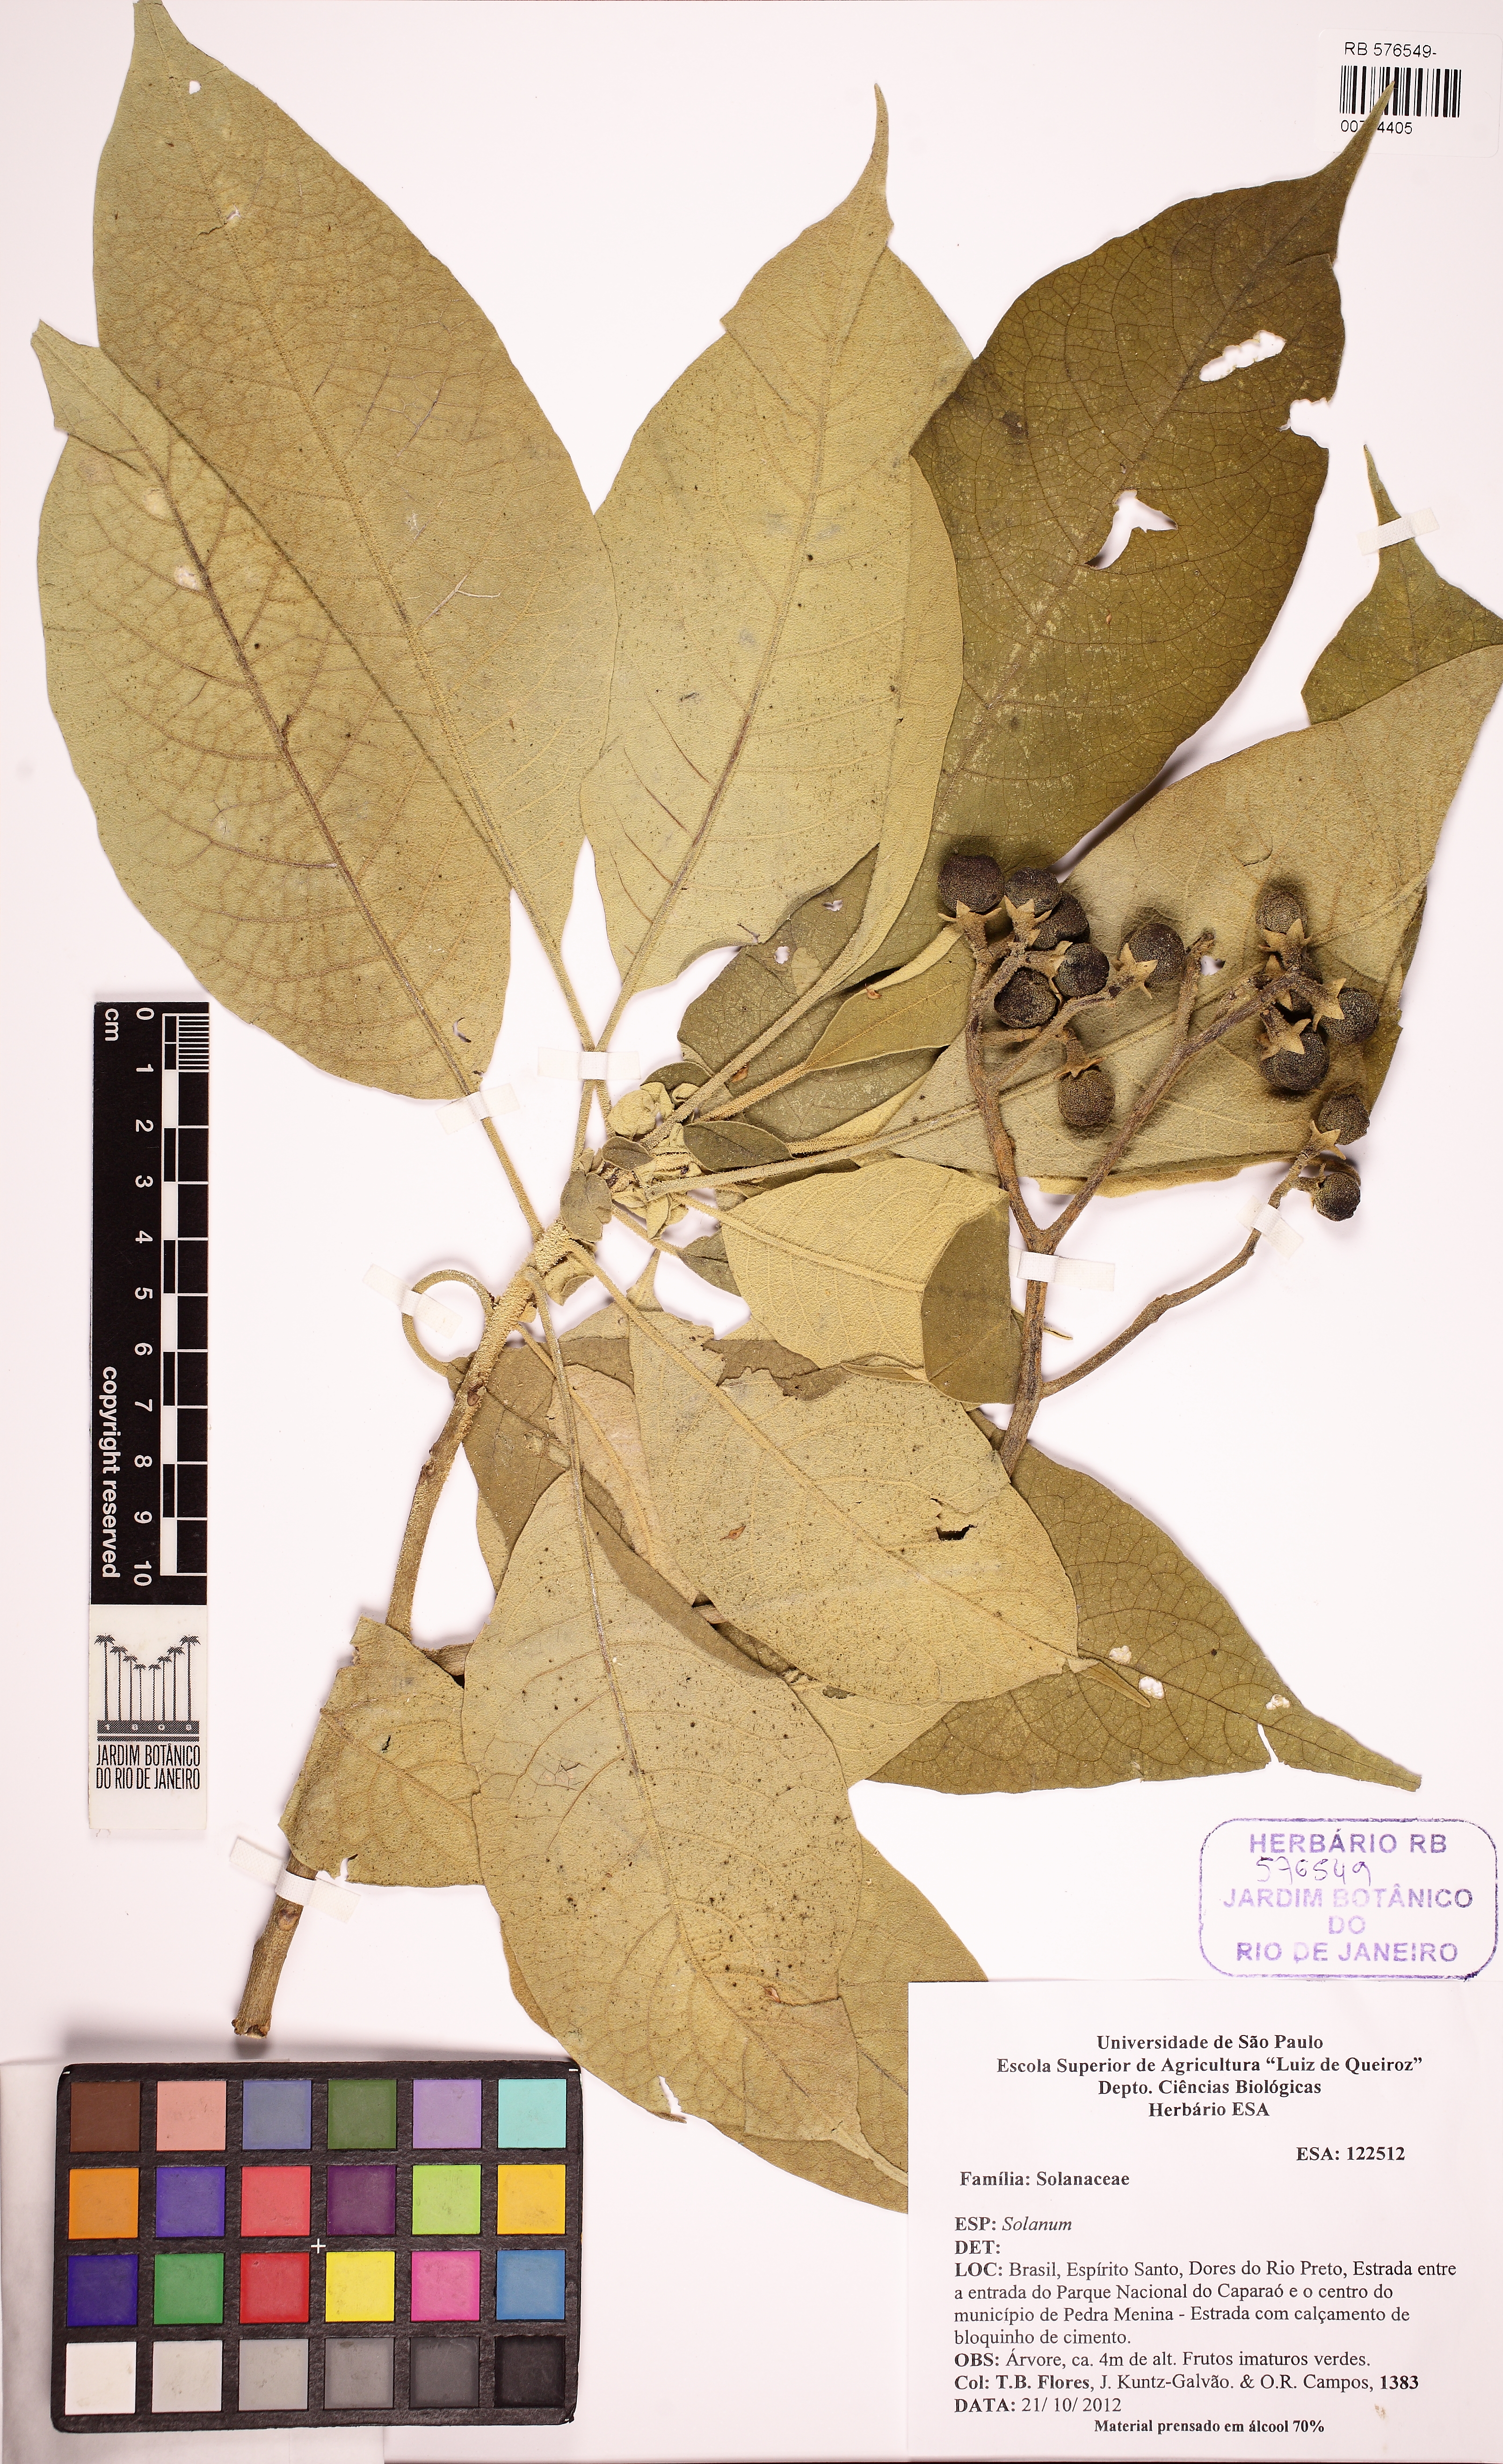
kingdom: Plantae
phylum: Tracheophyta
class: Magnoliopsida
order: Solanales
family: Solanaceae
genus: Solanum
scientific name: Solanum granulosoleprosum
